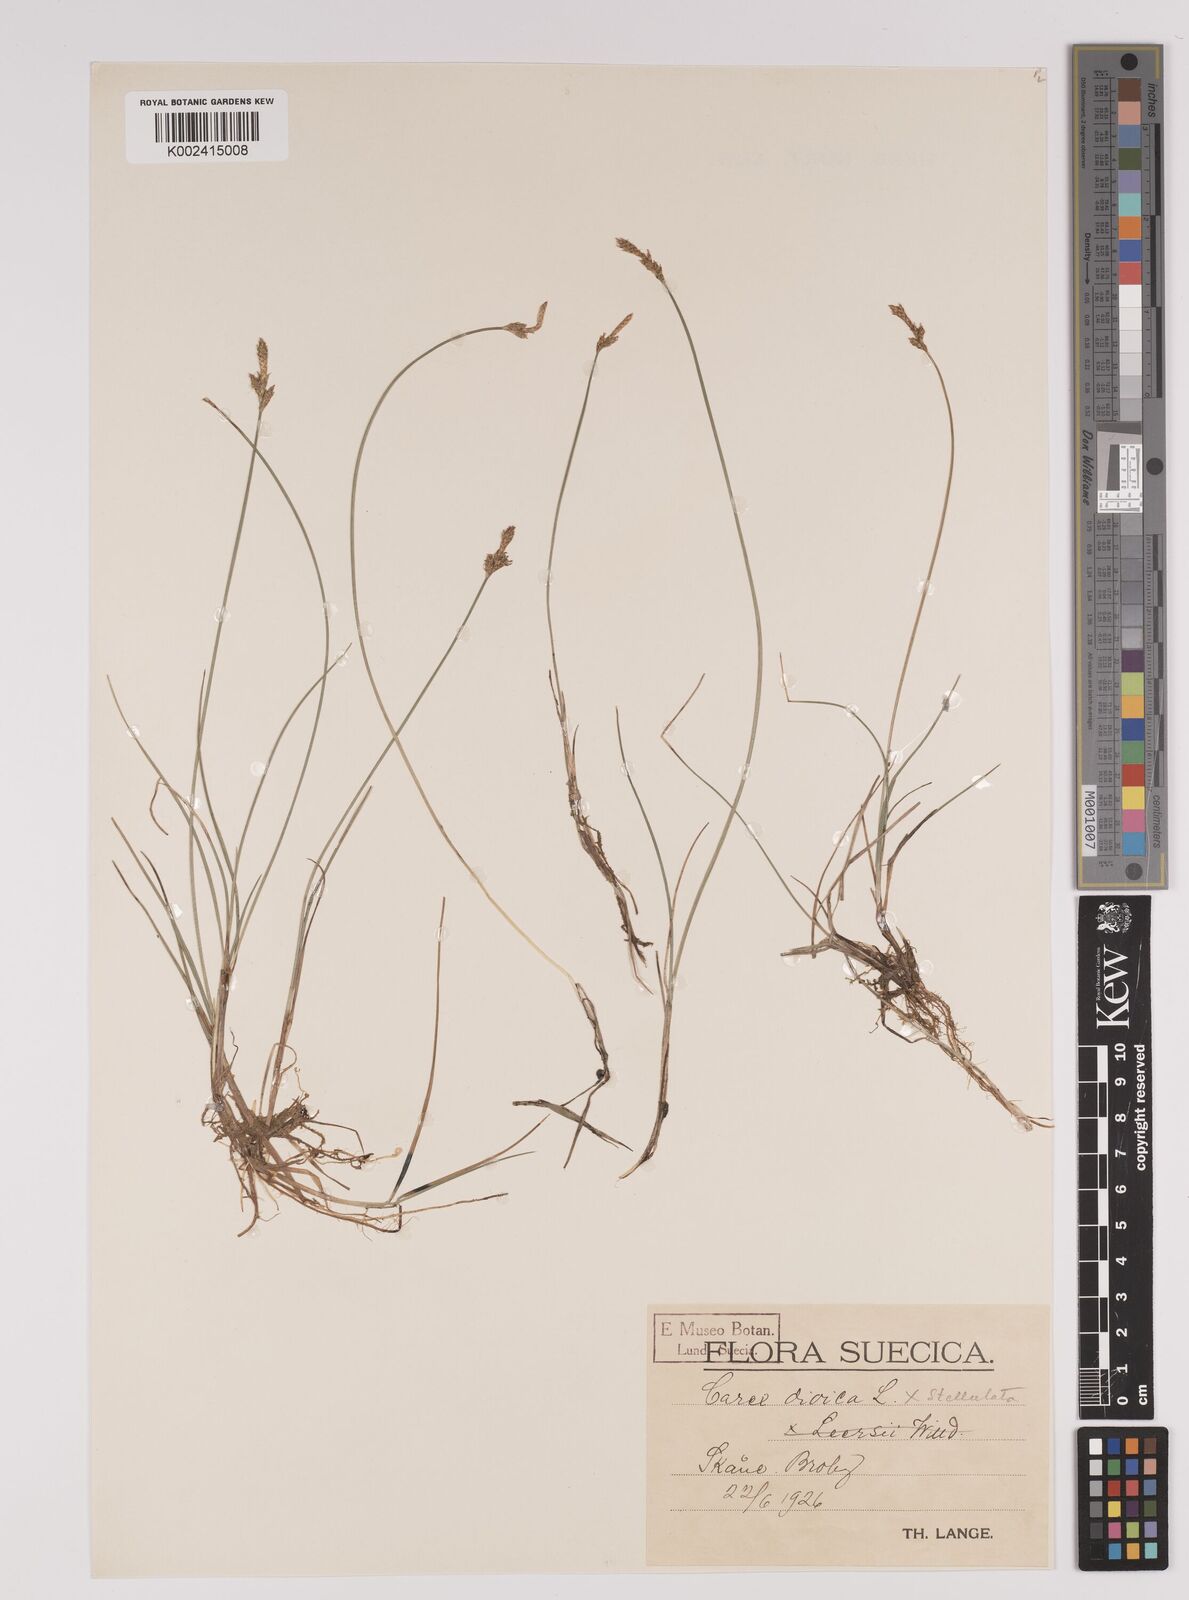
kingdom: Plantae
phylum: Tracheophyta
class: Liliopsida
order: Poales
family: Cyperaceae
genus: Carex
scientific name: Carex dioica
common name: Dioecious sedge
